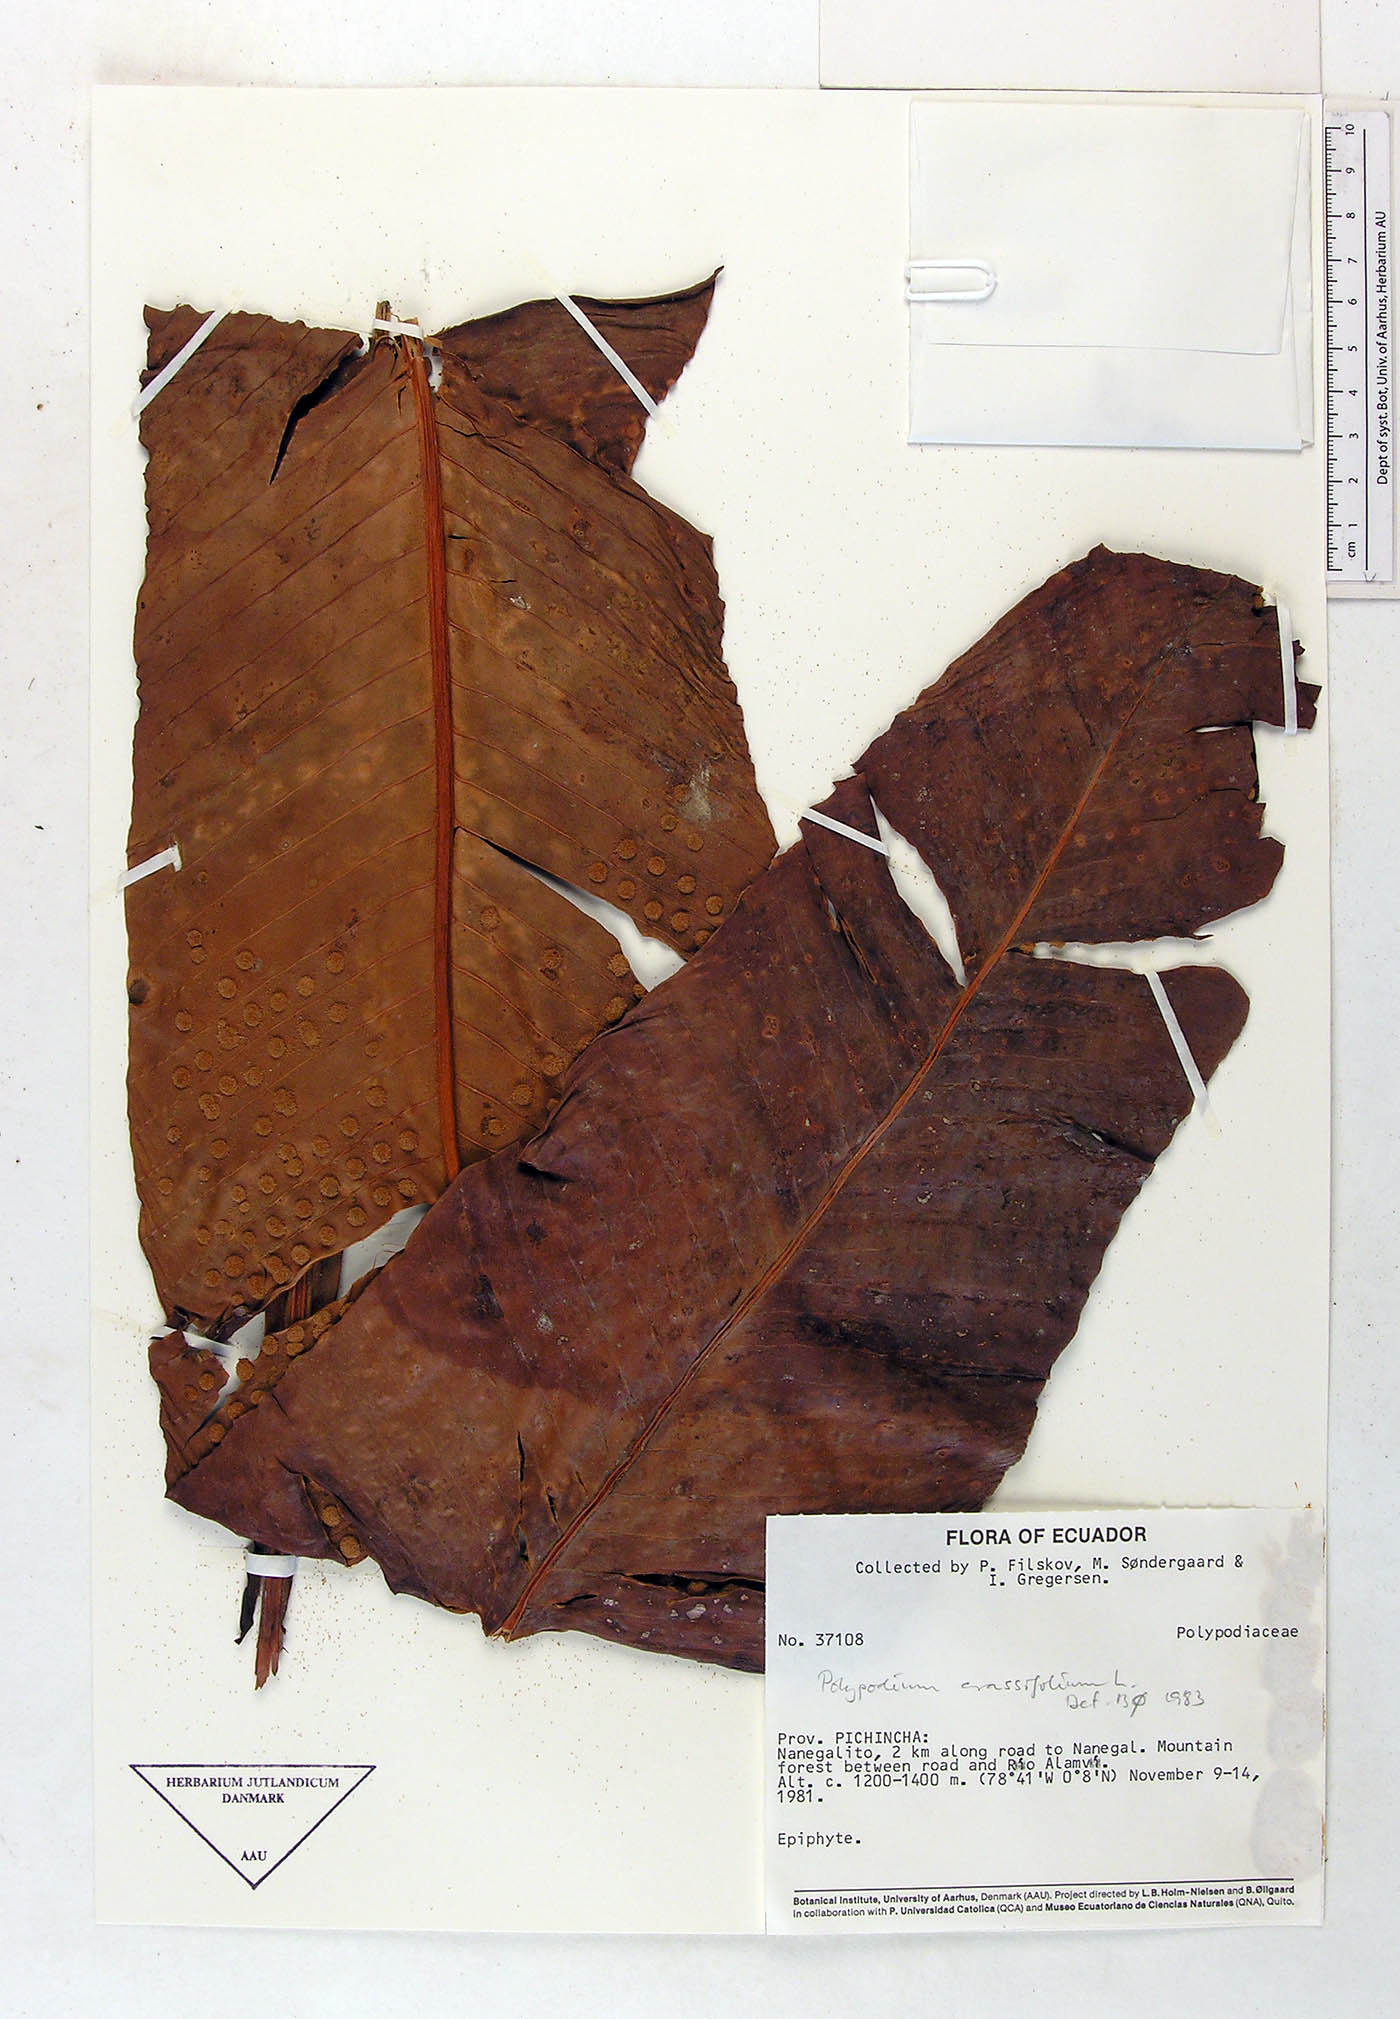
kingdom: Plantae
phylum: Tracheophyta
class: Polypodiopsida
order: Polypodiales
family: Polypodiaceae
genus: Niphidium
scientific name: Niphidium crassifolium
